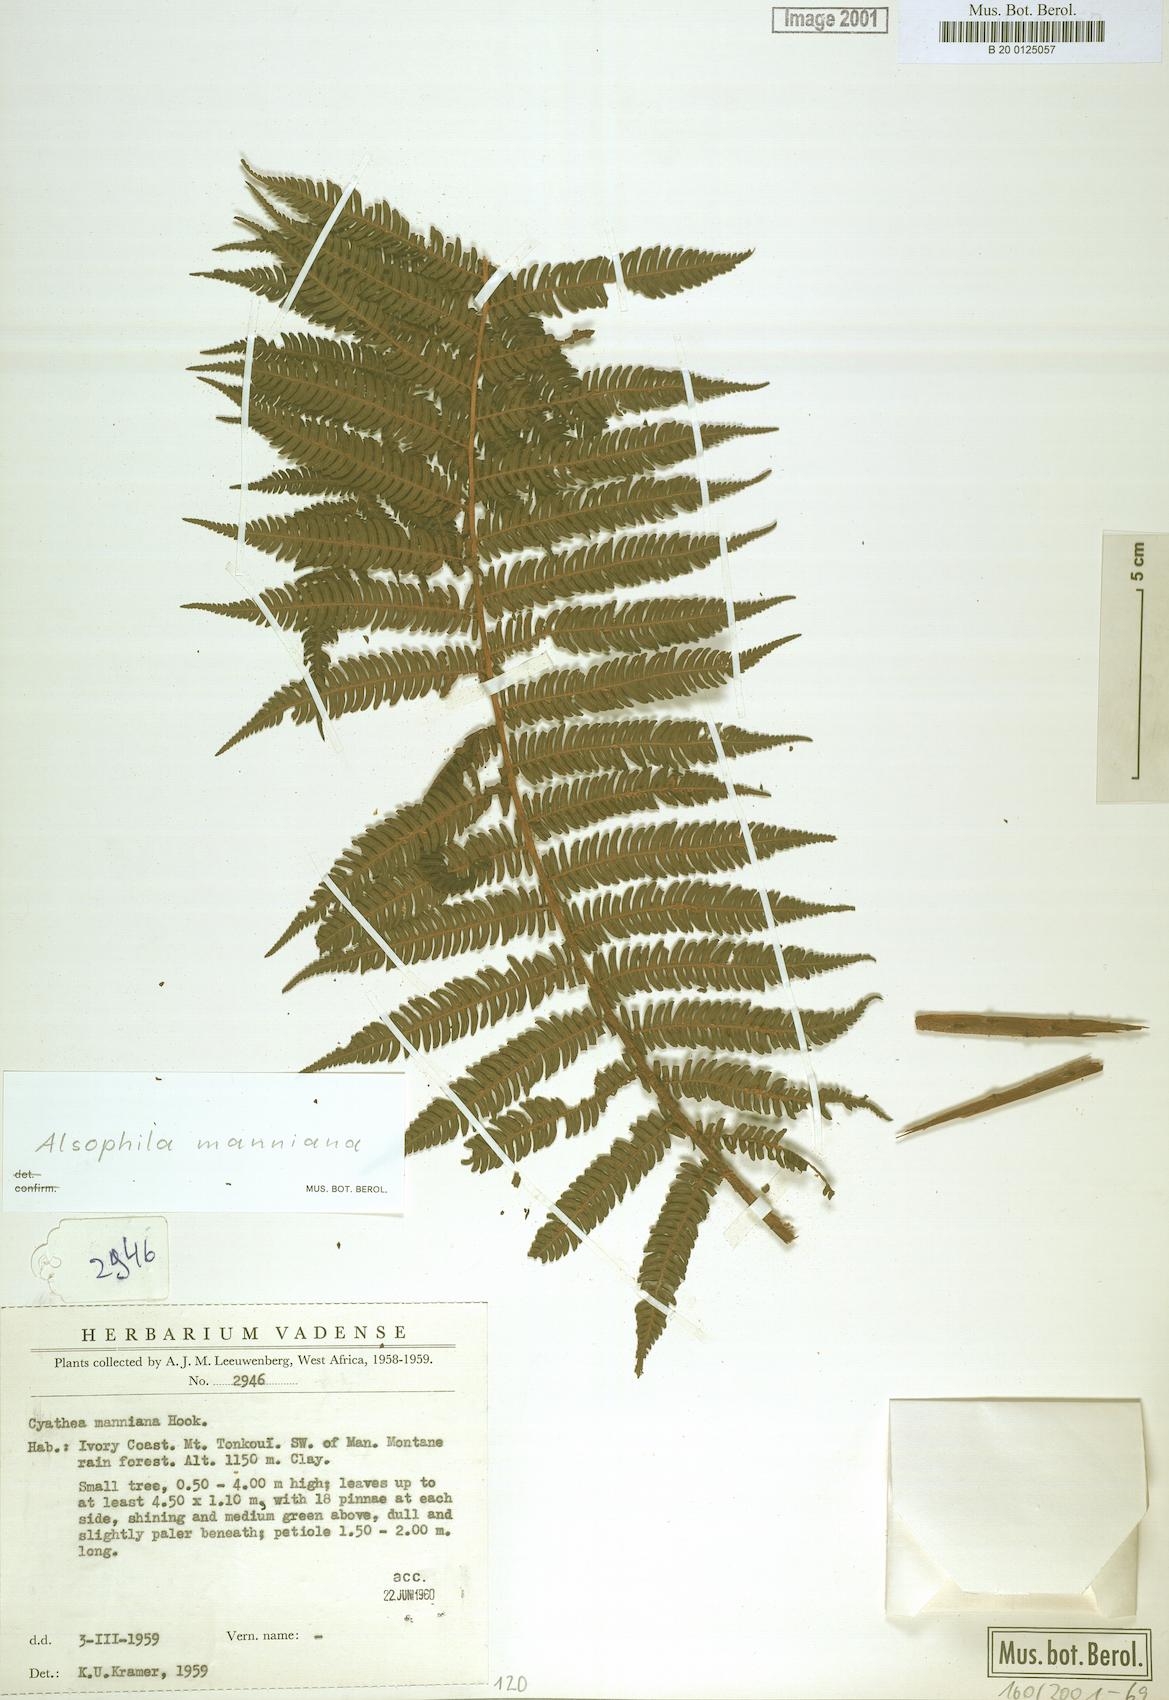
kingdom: Plantae
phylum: Tracheophyta
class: Polypodiopsida
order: Cyatheales
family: Cyatheaceae
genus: Alsophila
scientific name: Alsophila manniana
